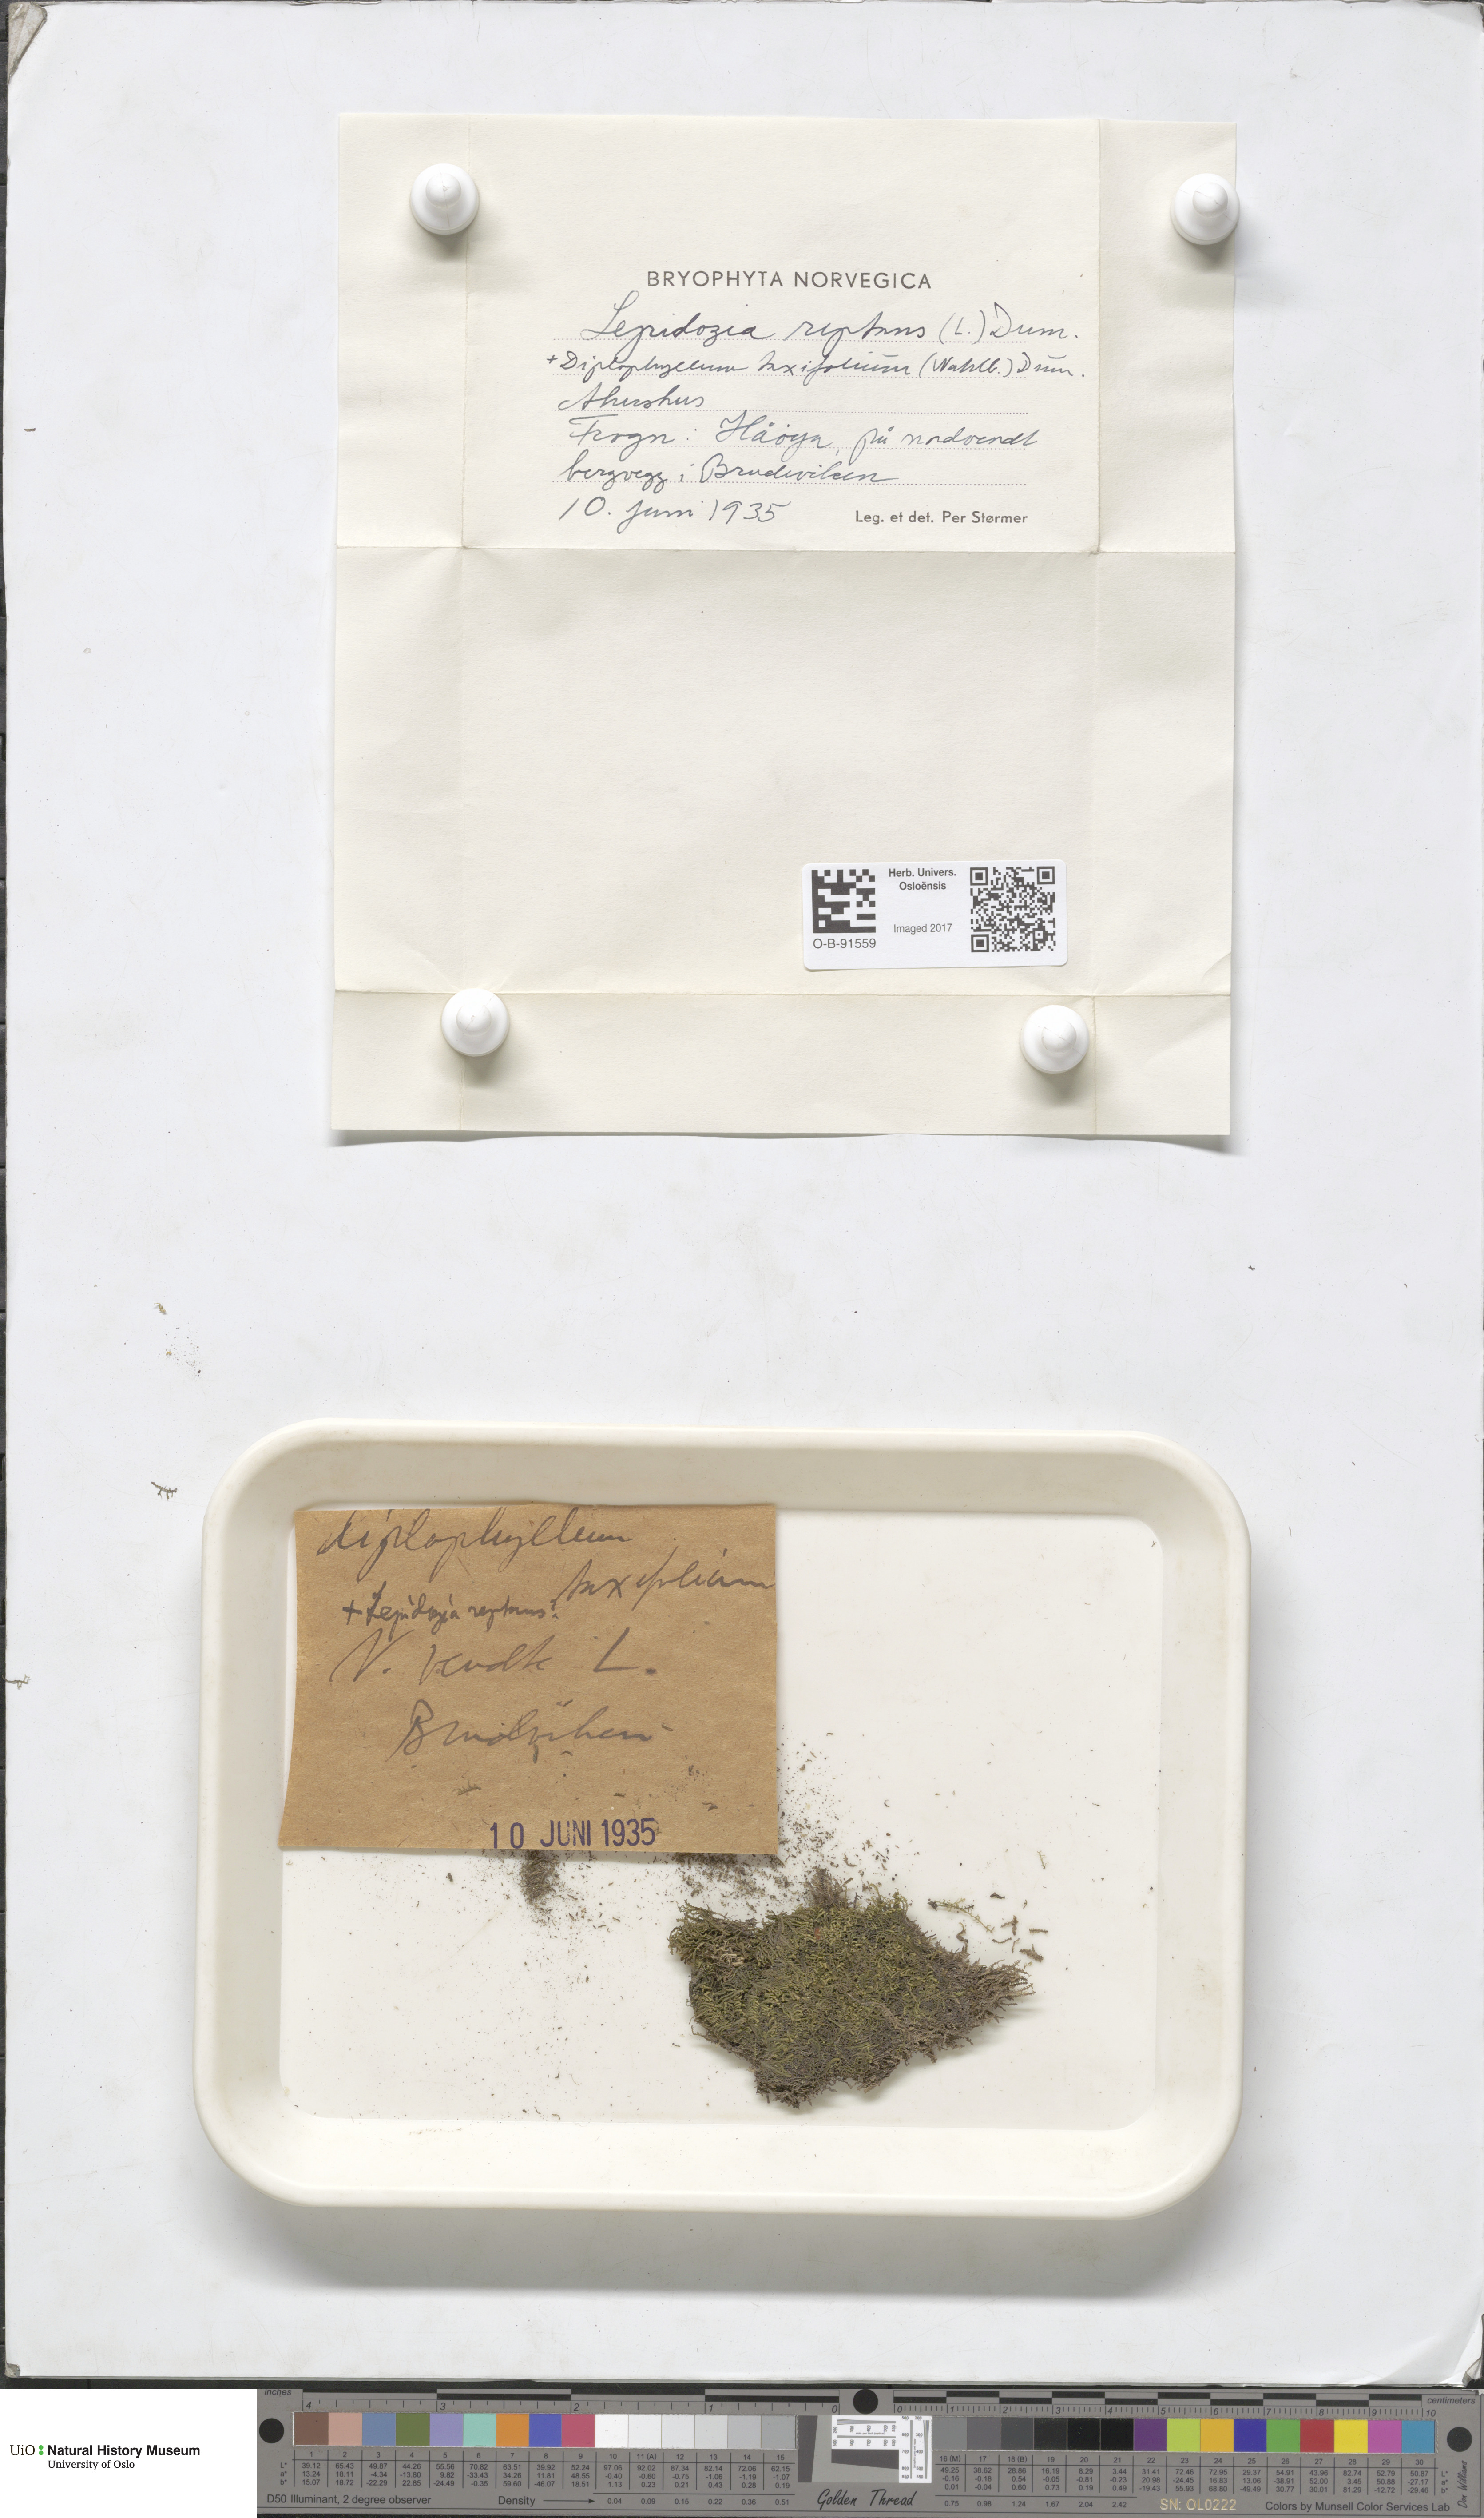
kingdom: Plantae
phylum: Marchantiophyta
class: Jungermanniopsida
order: Jungermanniales
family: Lepidoziaceae
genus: Lepidozia
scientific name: Lepidozia reptans
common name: Creeping fingerwort
